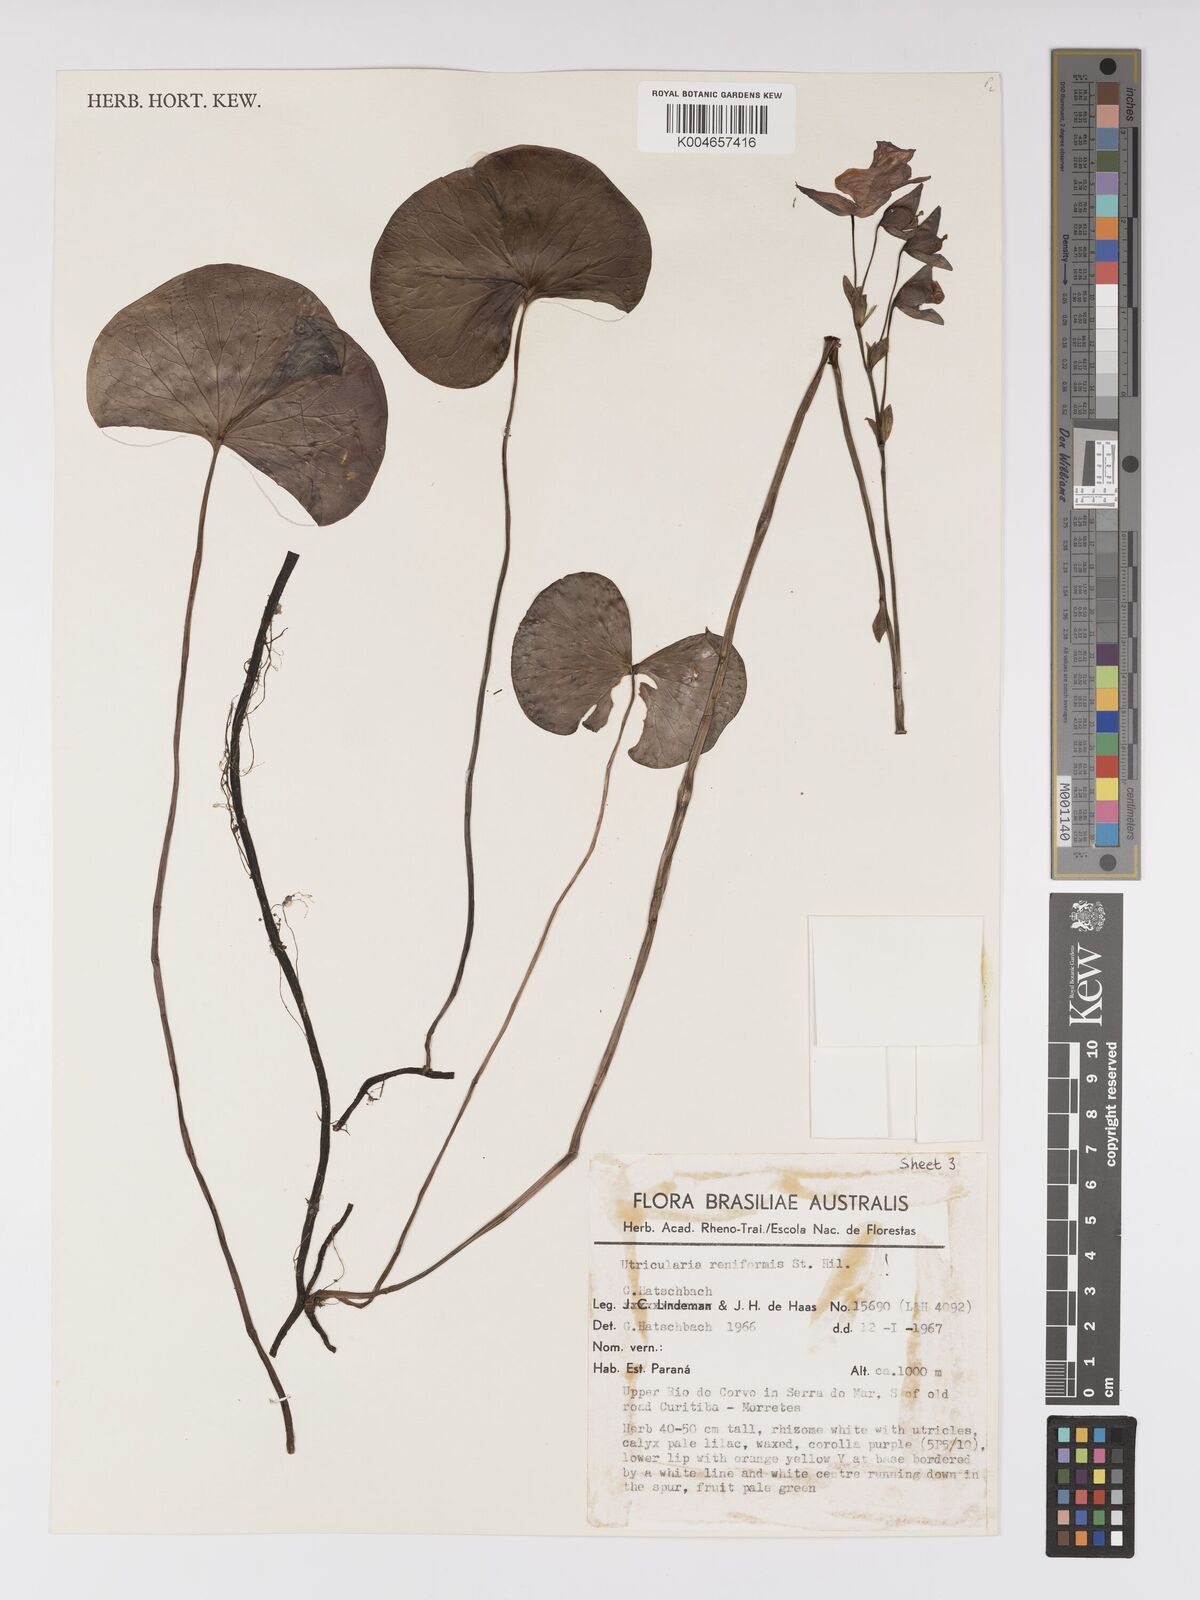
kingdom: Plantae
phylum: Tracheophyta
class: Magnoliopsida
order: Lamiales
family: Lentibulariaceae
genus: Utricularia
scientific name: Utricularia reniformis
